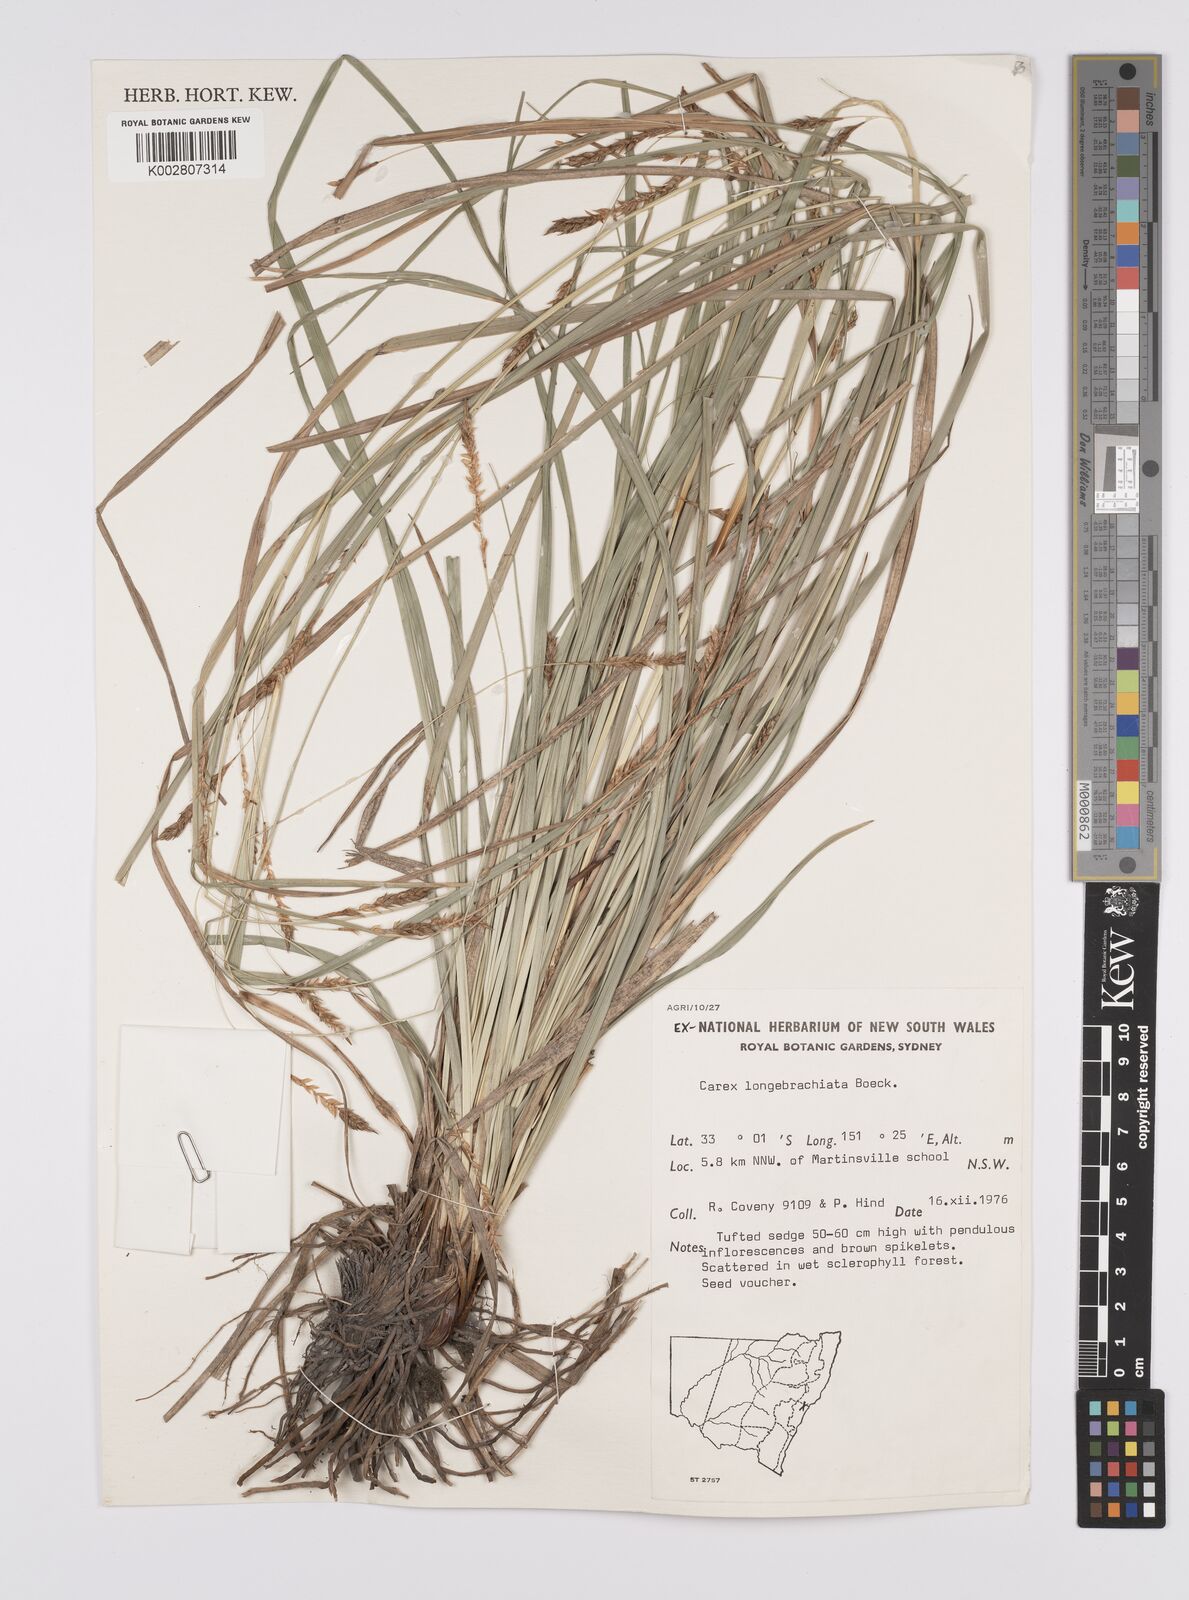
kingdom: Plantae
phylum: Tracheophyta
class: Liliopsida
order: Poales
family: Cyperaceae
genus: Carex
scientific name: Carex pseudocyperus
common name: Cyperus sedge
